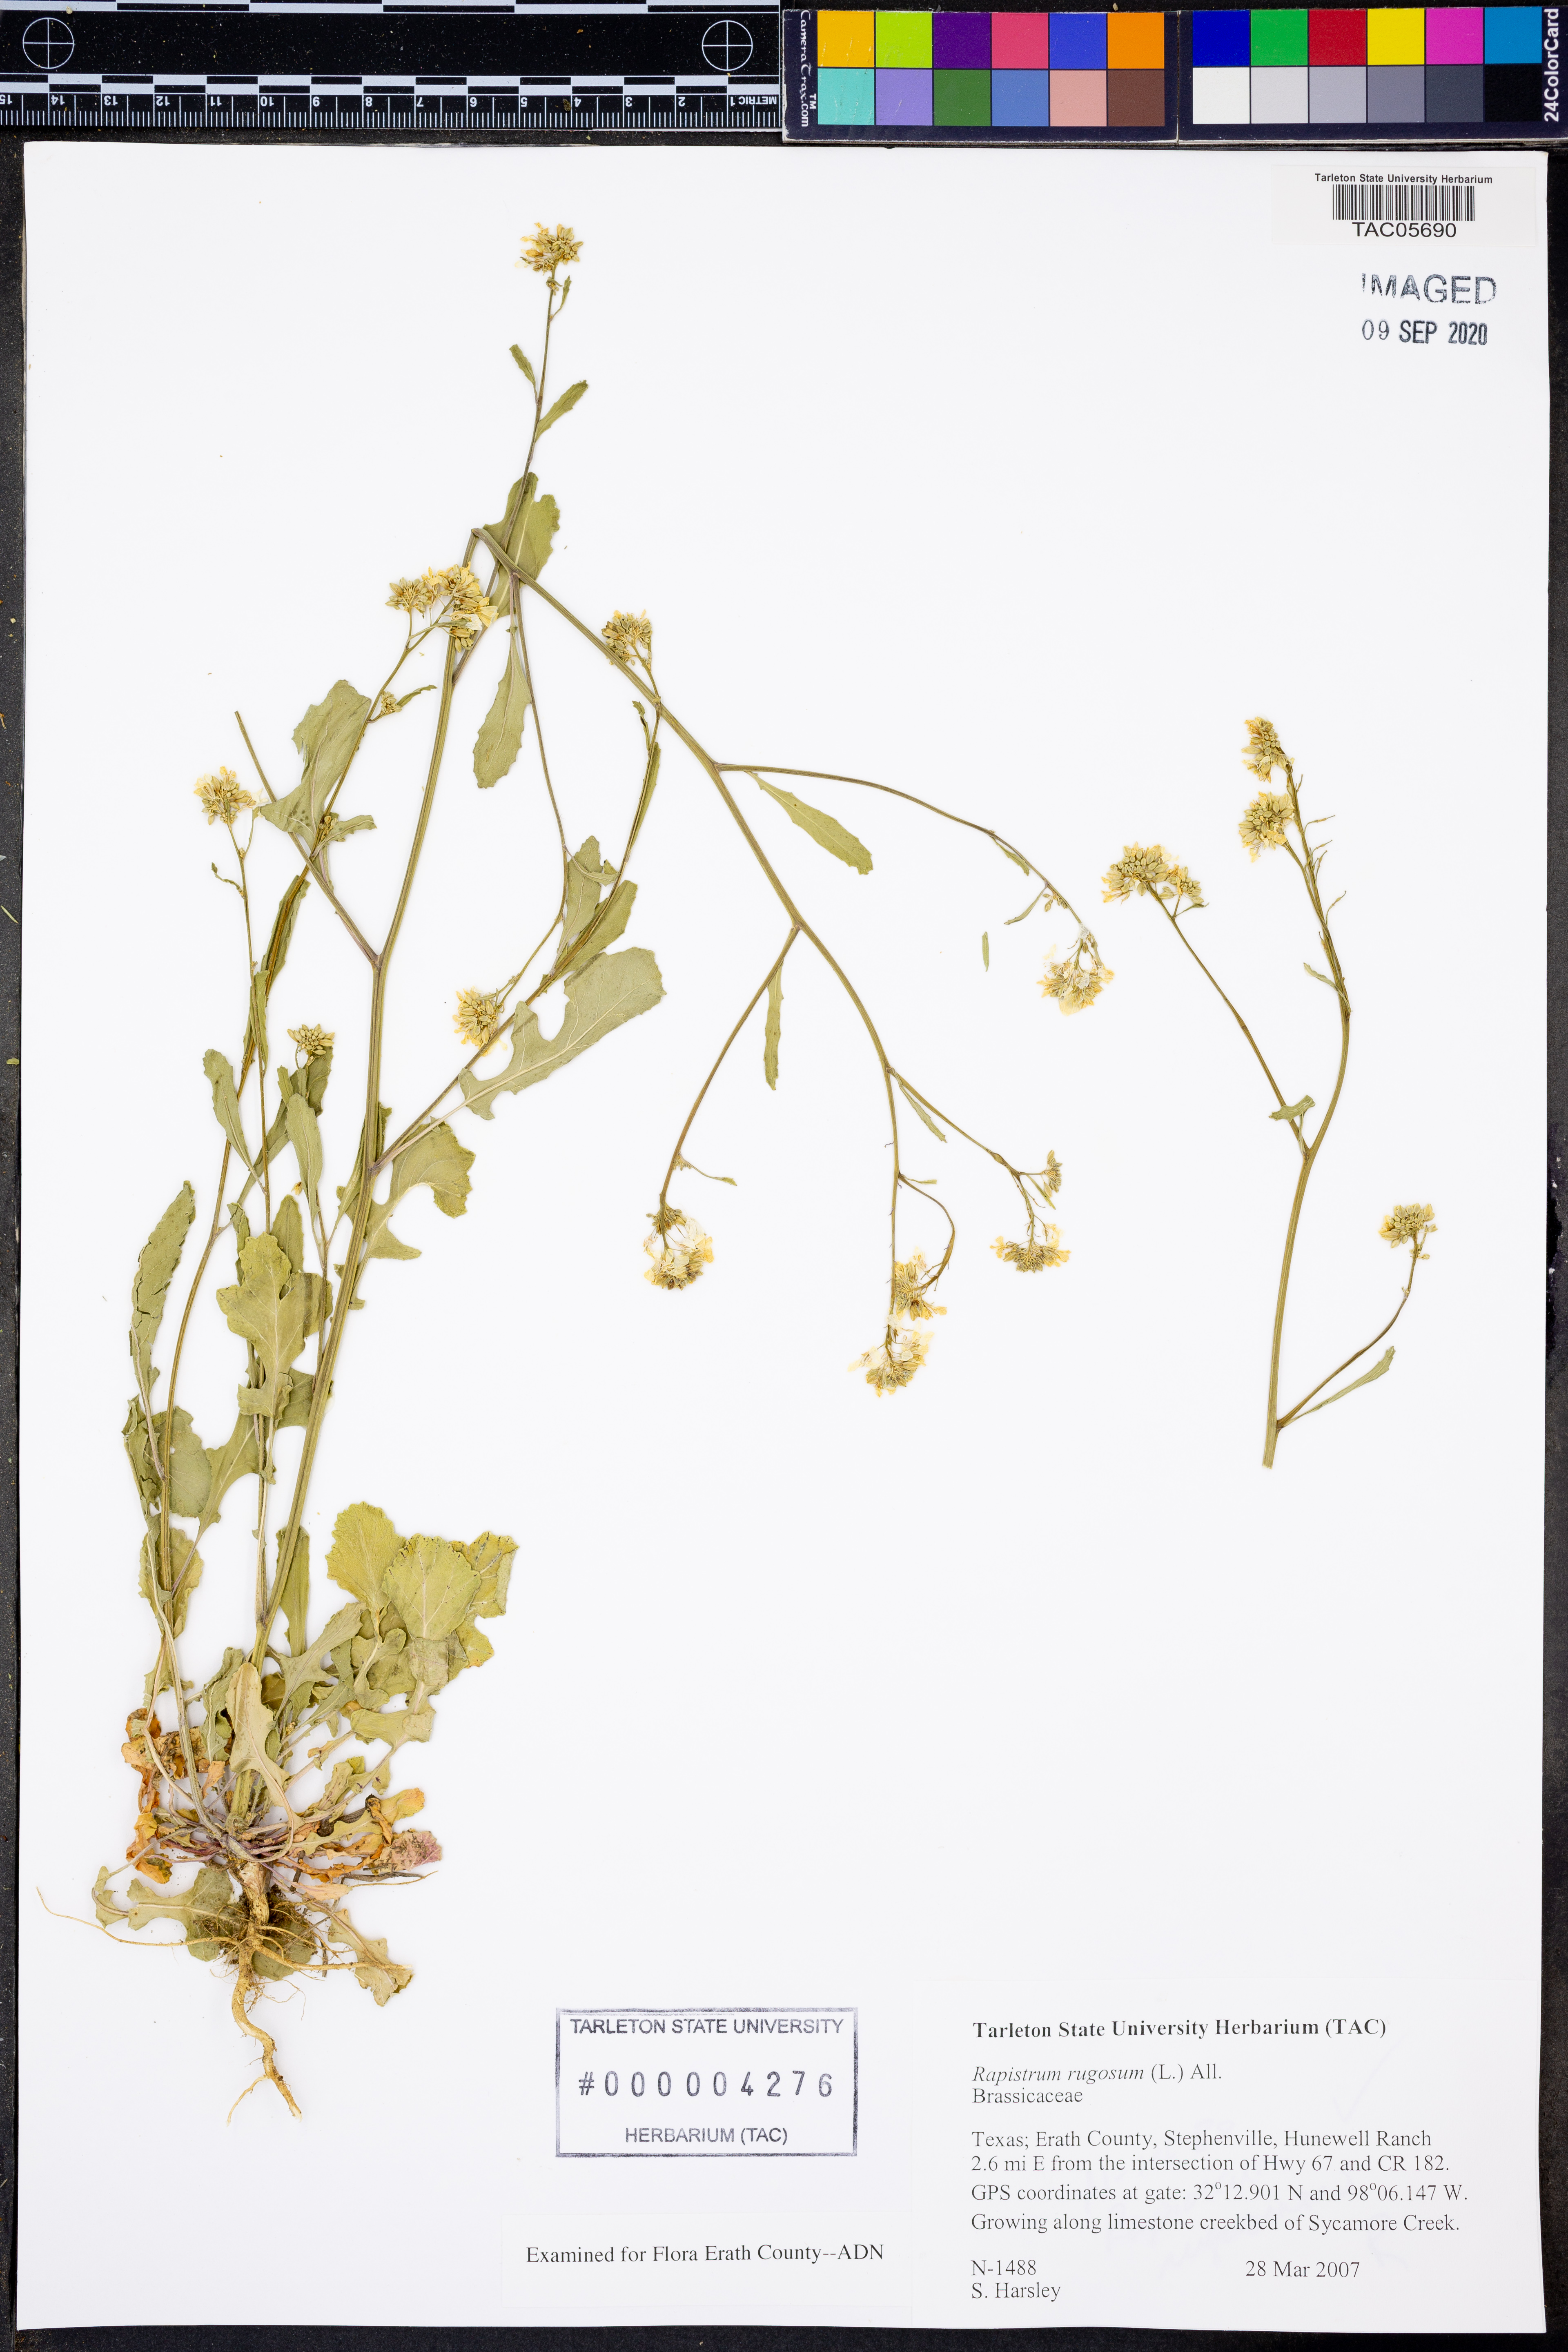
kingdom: Plantae
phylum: Tracheophyta
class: Magnoliopsida
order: Brassicales
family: Brassicaceae
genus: Rapistrum
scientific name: Rapistrum rugosum
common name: Annual bastardcabbage
